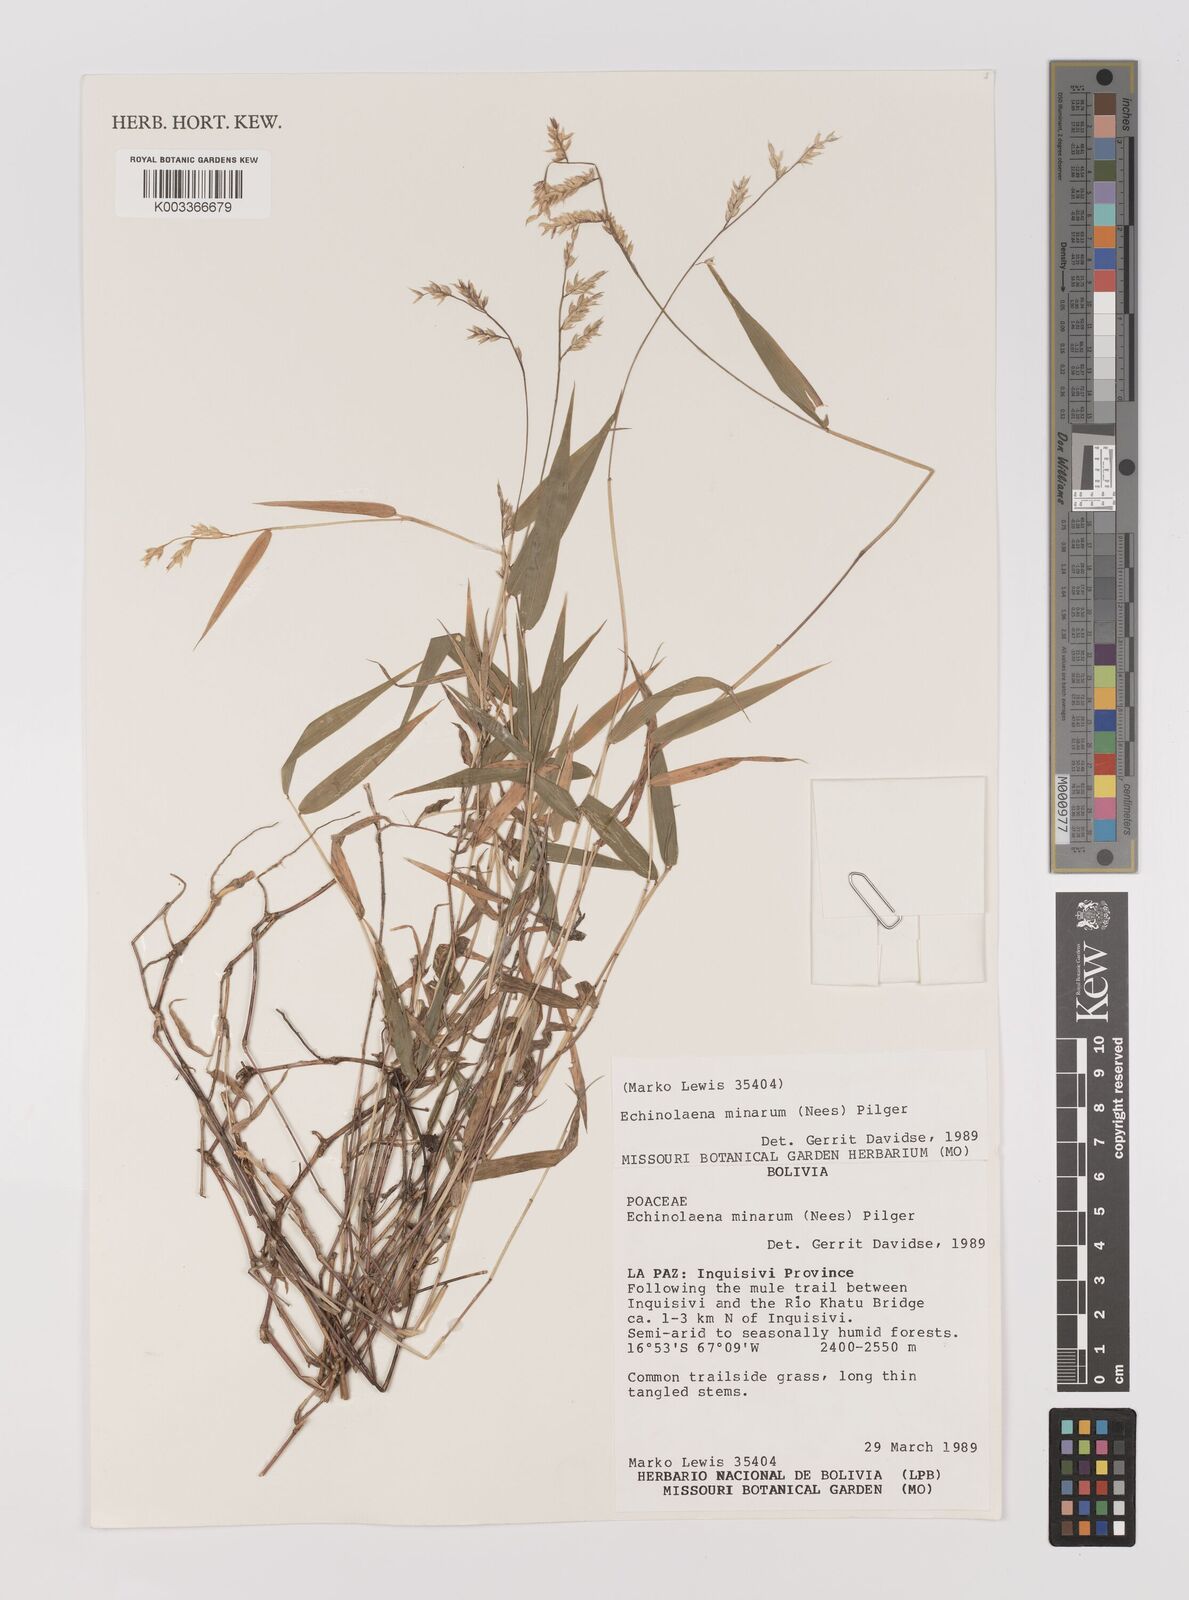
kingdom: Plantae
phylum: Tracheophyta
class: Liliopsida
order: Poales
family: Poaceae
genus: Oedochloa
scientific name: Oedochloa minarum
